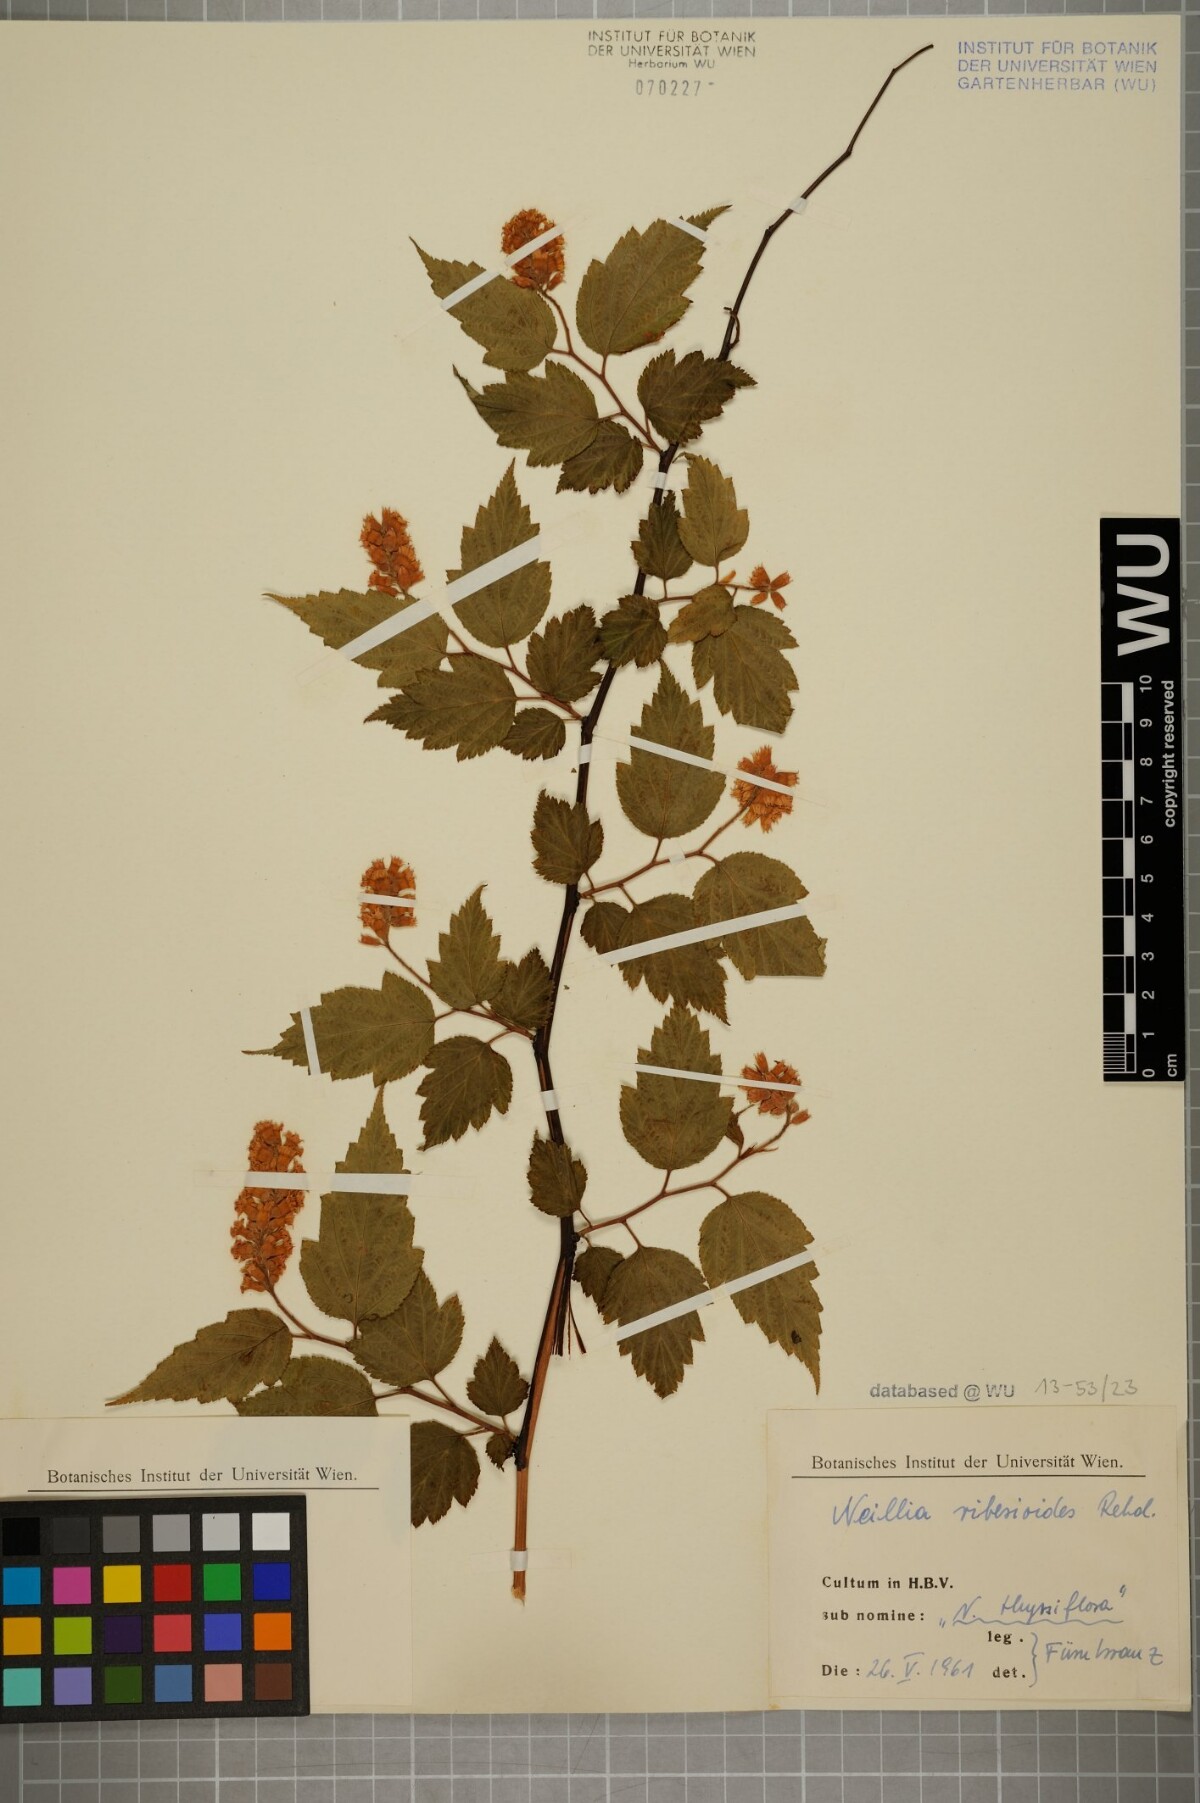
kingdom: Plantae
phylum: Tracheophyta
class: Magnoliopsida
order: Rosales
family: Rosaceae
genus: Neillia
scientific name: Neillia sinensis
